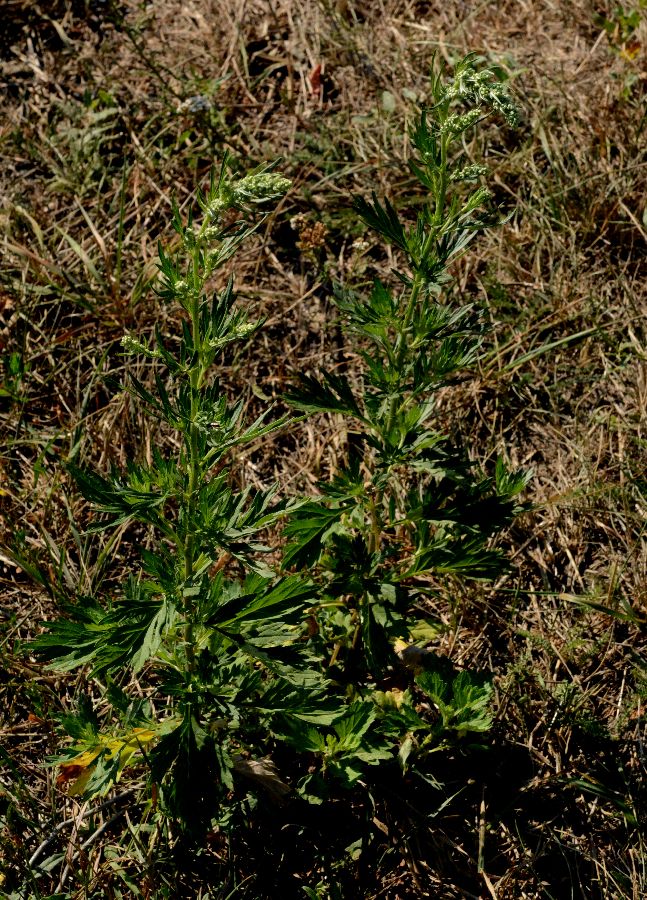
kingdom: Plantae
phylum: Tracheophyta
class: Magnoliopsida
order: Asterales
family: Asteraceae
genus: Artemisia
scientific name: Artemisia vulgaris
